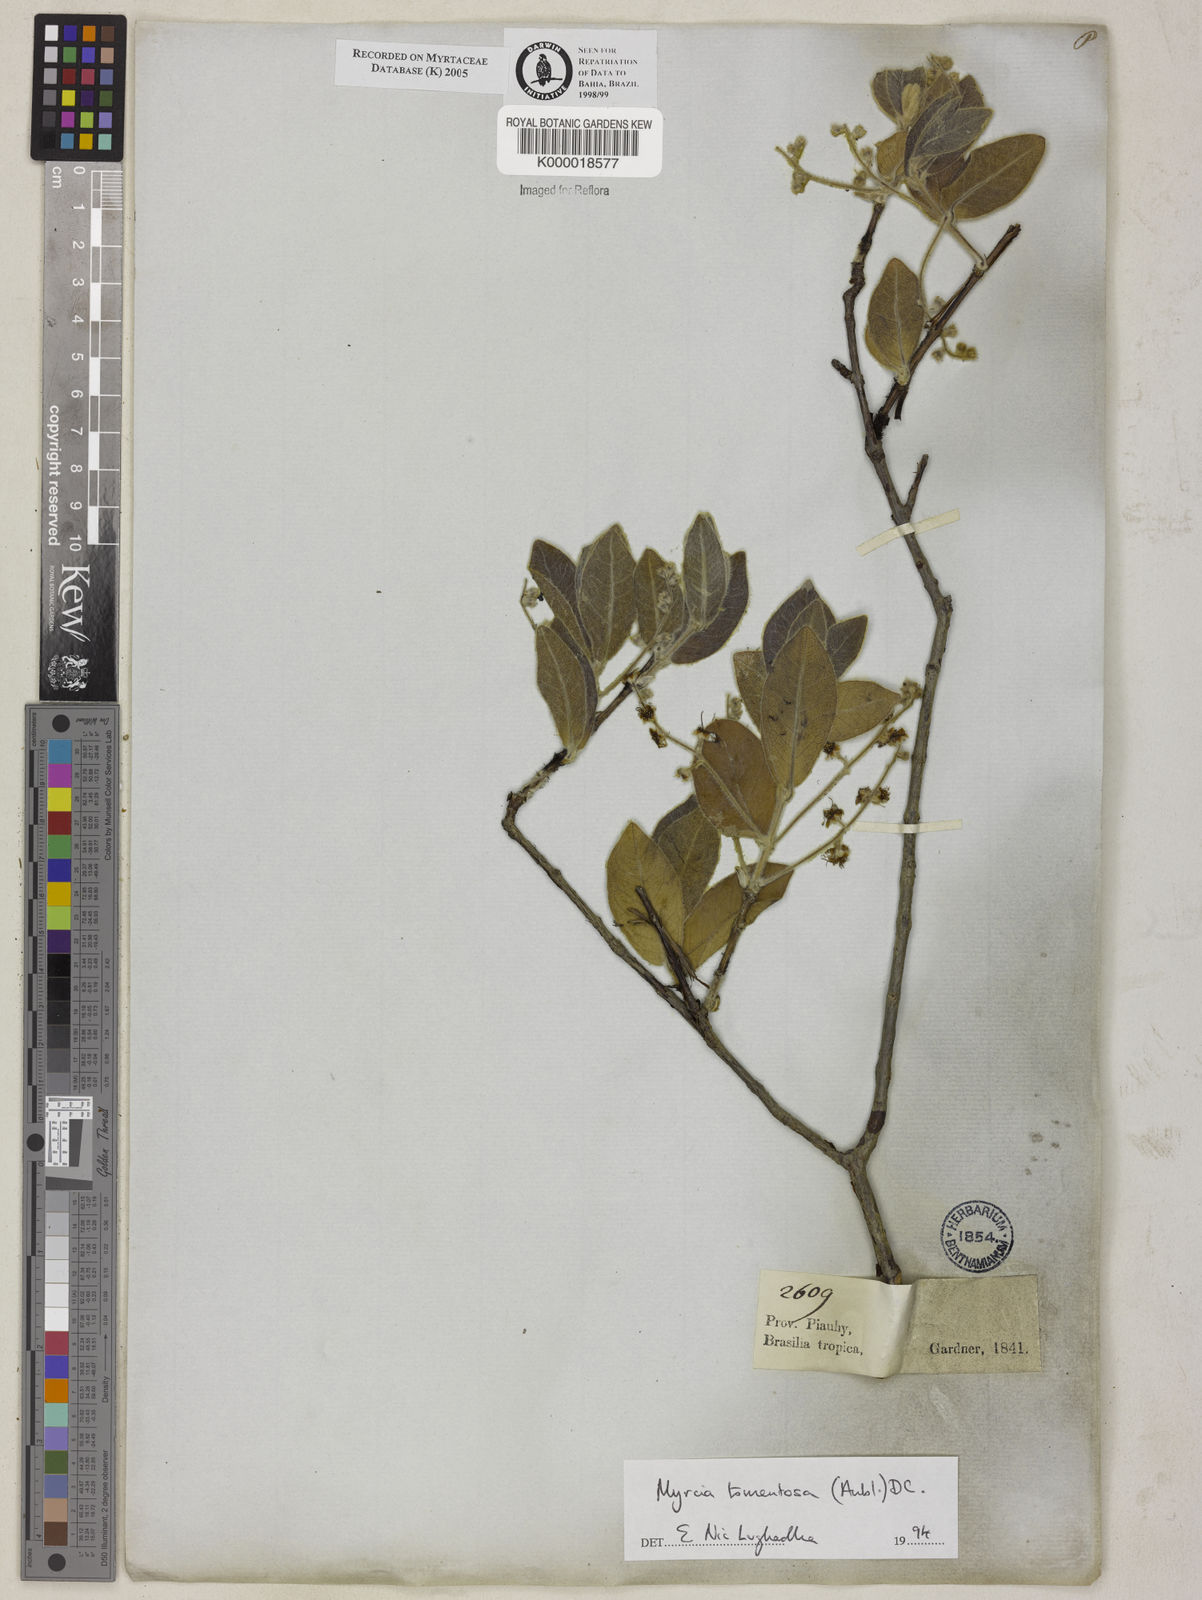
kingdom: Plantae
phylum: Tracheophyta
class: Magnoliopsida
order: Myrtales
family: Myrtaceae
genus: Myrcia
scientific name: Myrcia tomentosa
